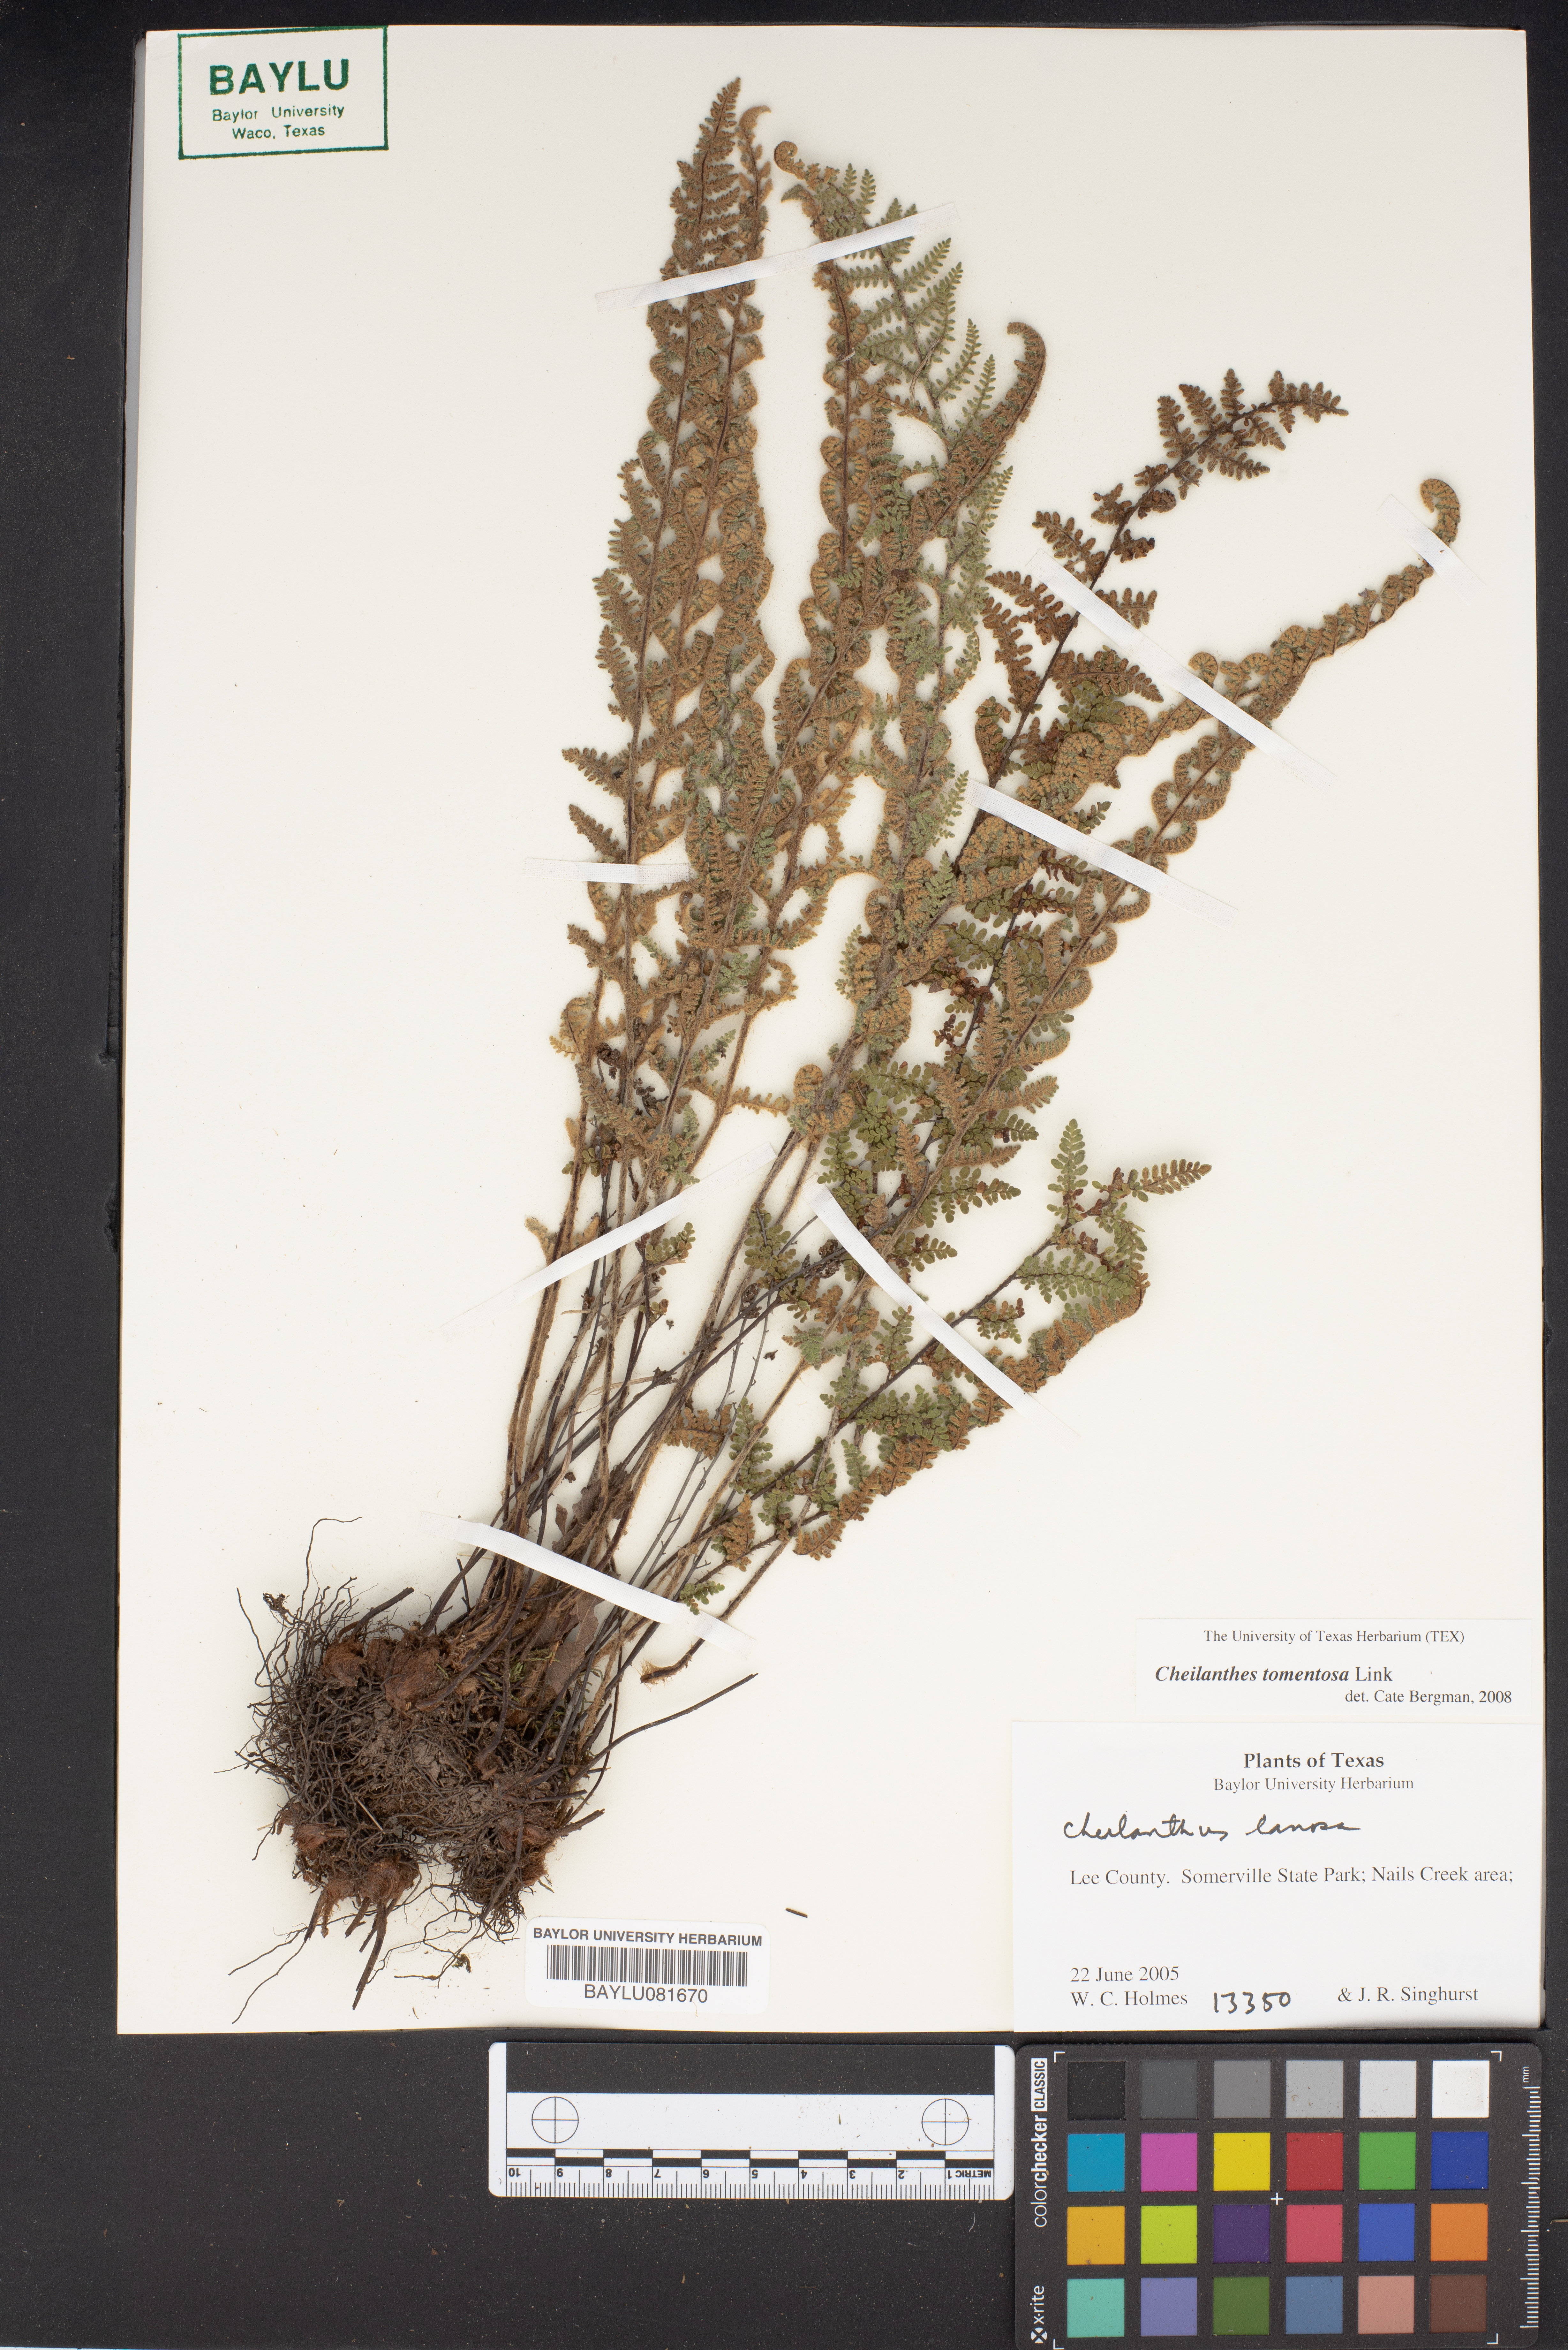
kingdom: Plantae
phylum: Tracheophyta
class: Polypodiopsida
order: Polypodiales
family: Pteridaceae
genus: Myriopteris
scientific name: Myriopteris tomentosa
